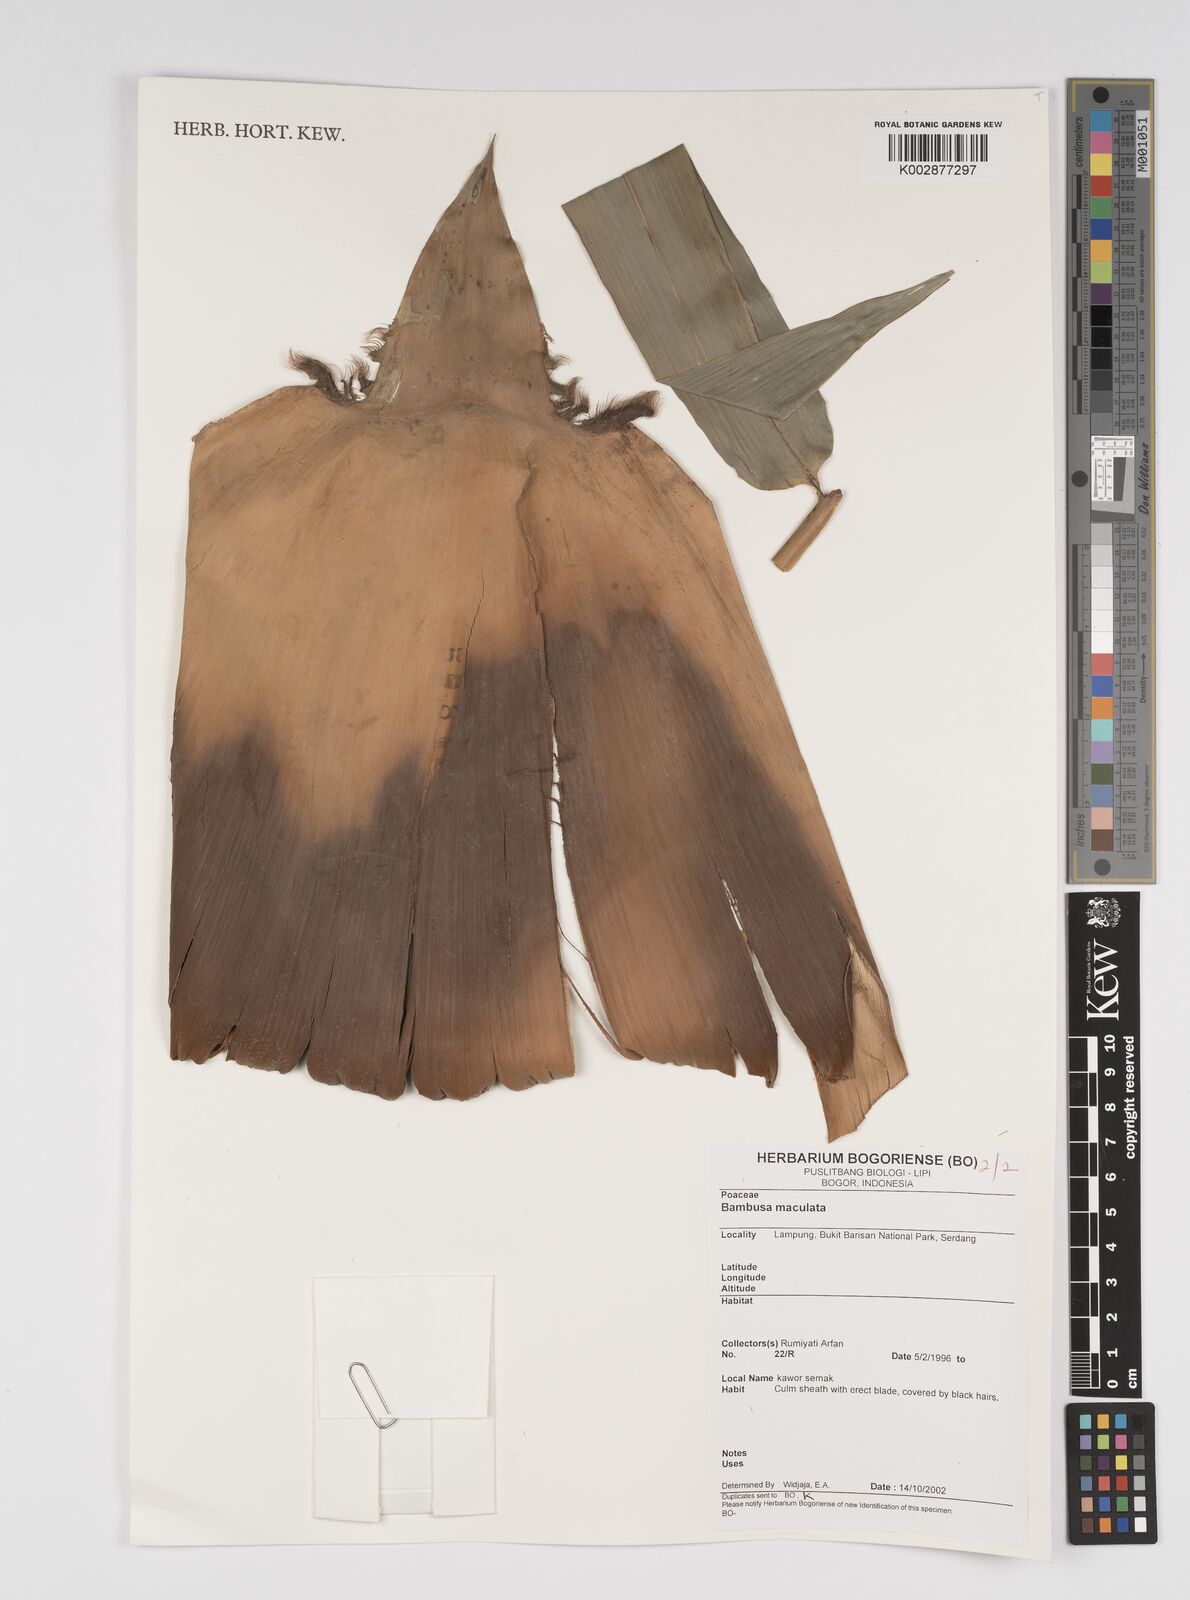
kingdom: Plantae
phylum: Tracheophyta
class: Liliopsida
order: Poales
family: Poaceae
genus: Bambusa
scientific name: Bambusa maculata
